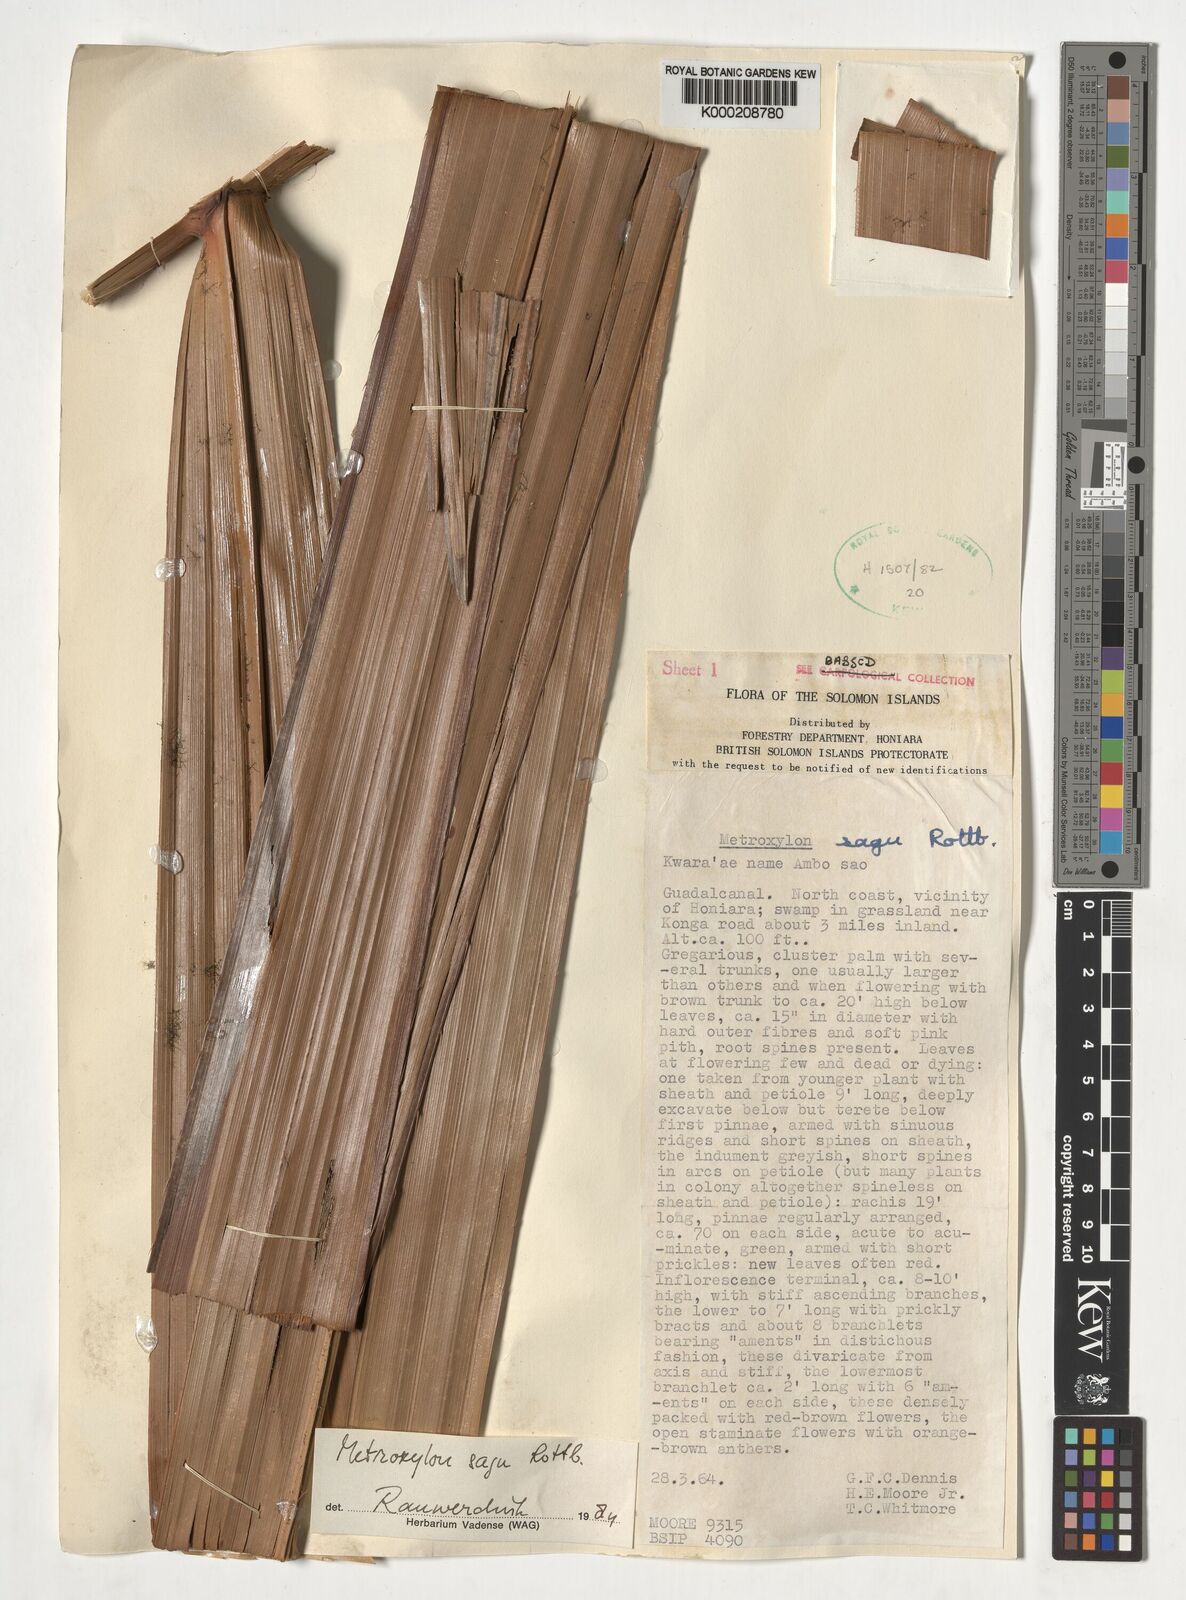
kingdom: Plantae
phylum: Tracheophyta
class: Liliopsida
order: Arecales
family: Arecaceae
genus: Metroxylon
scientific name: Metroxylon sagu
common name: Sago palm
